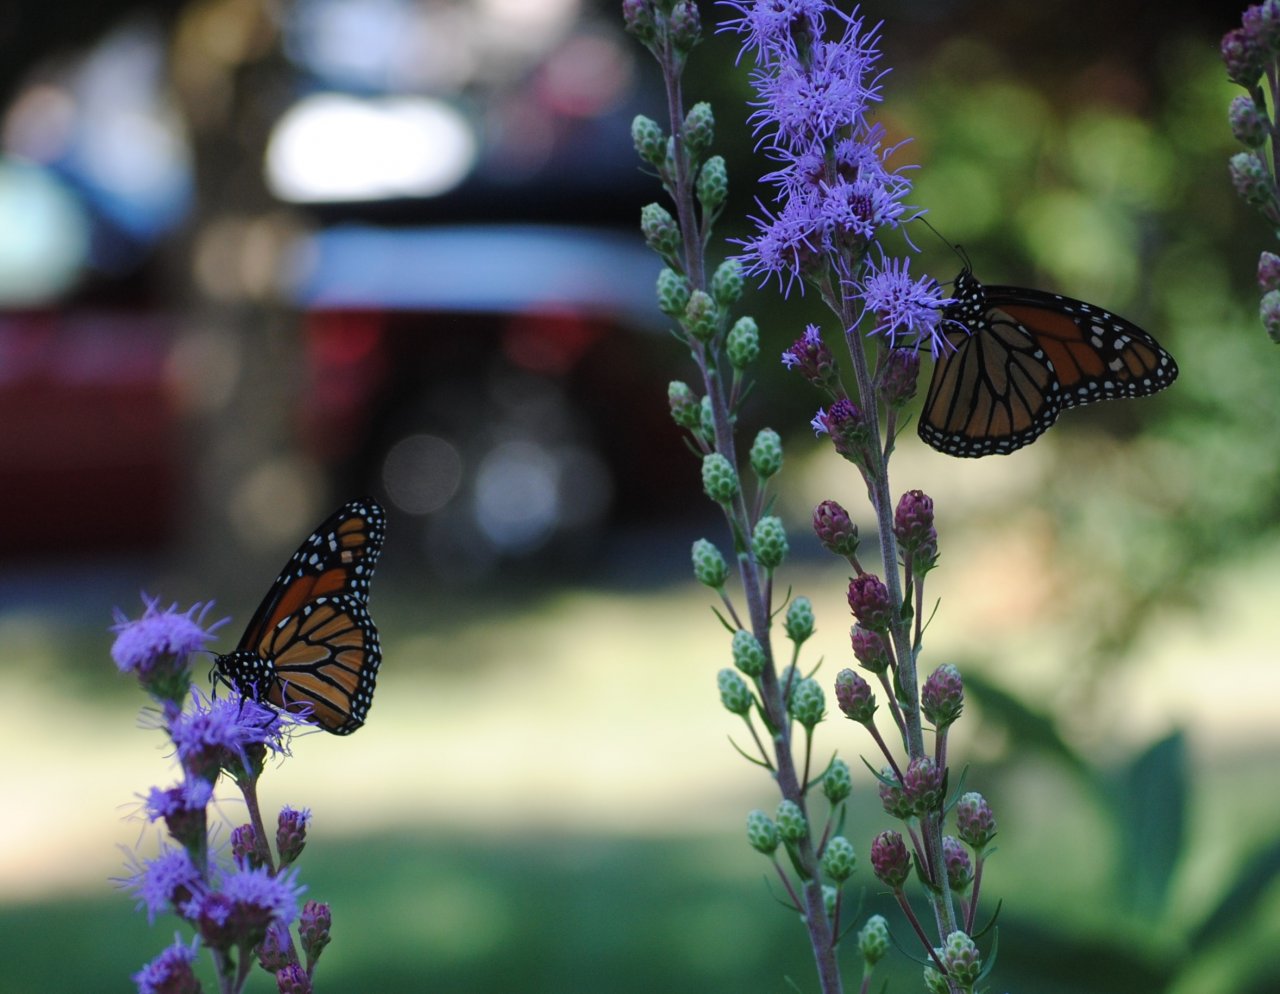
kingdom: Animalia
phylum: Arthropoda
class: Insecta
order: Lepidoptera
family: Nymphalidae
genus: Danaus
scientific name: Danaus plexippus
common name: Monarch
